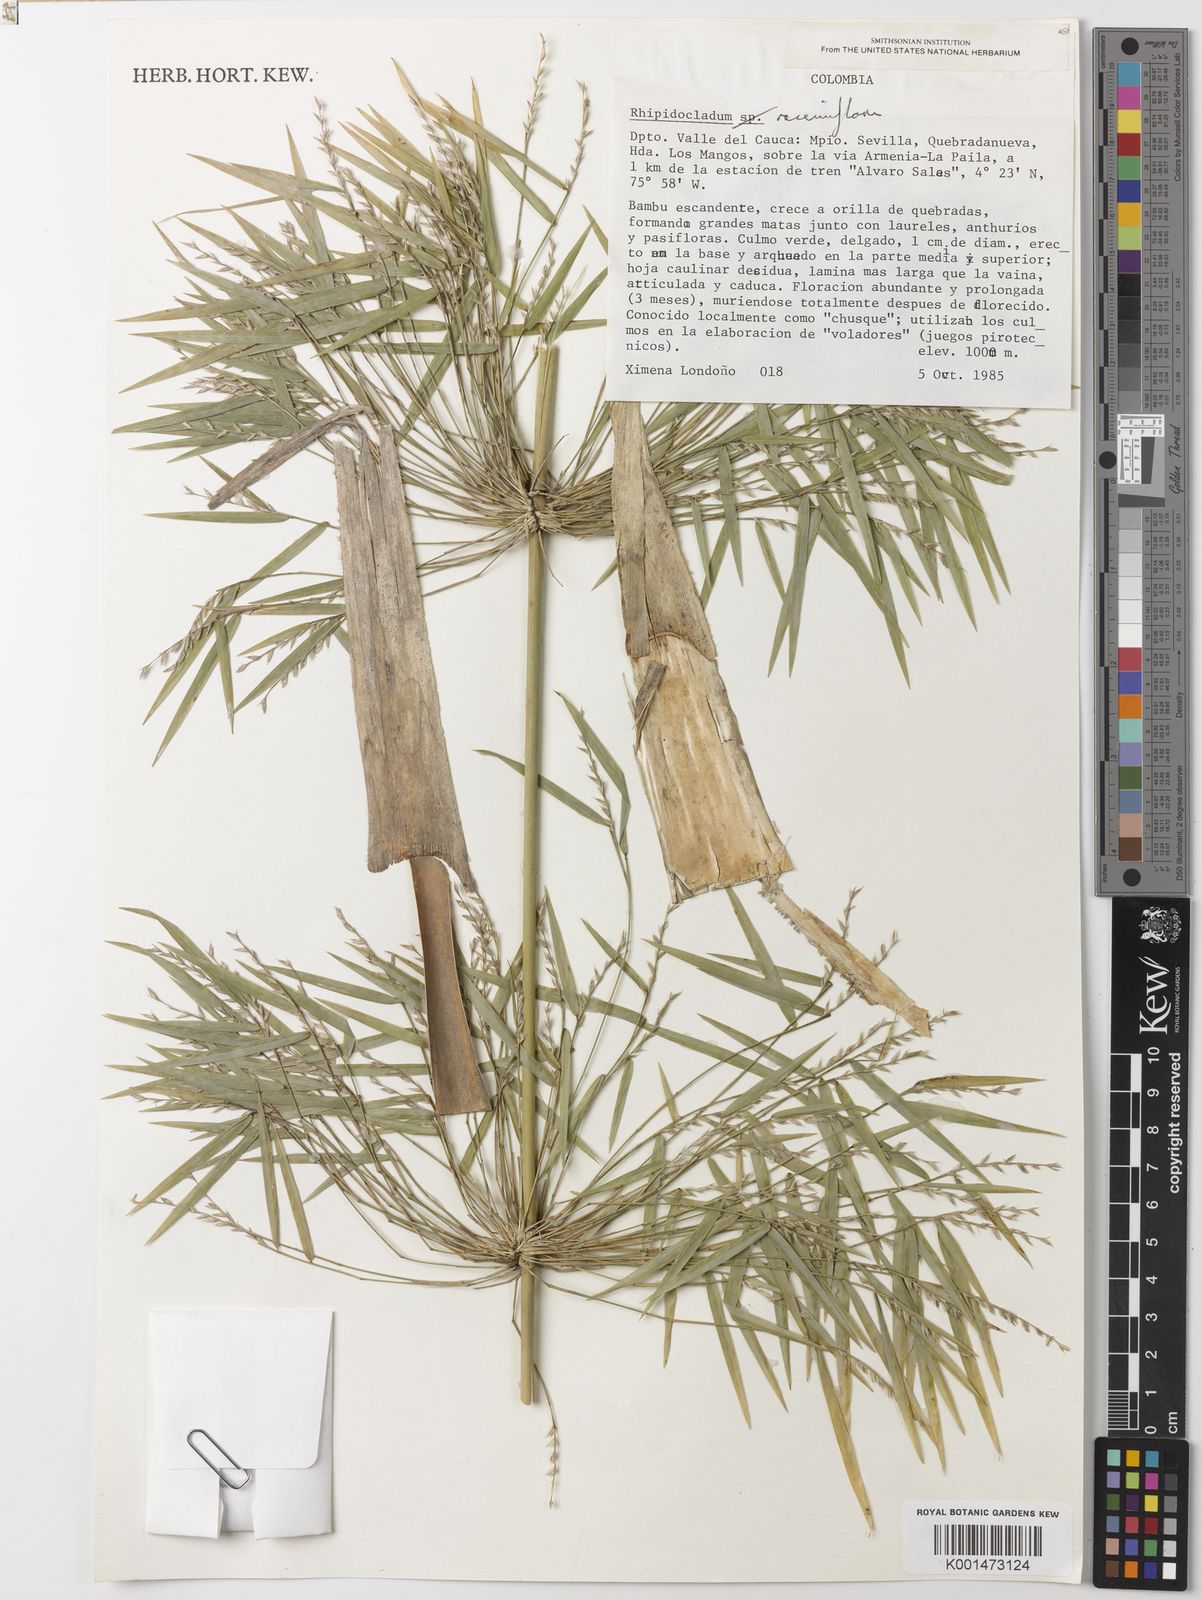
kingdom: Plantae
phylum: Tracheophyta
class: Liliopsida
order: Poales
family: Poaceae
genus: Rhipidocladum
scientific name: Rhipidocladum racemiflorum
